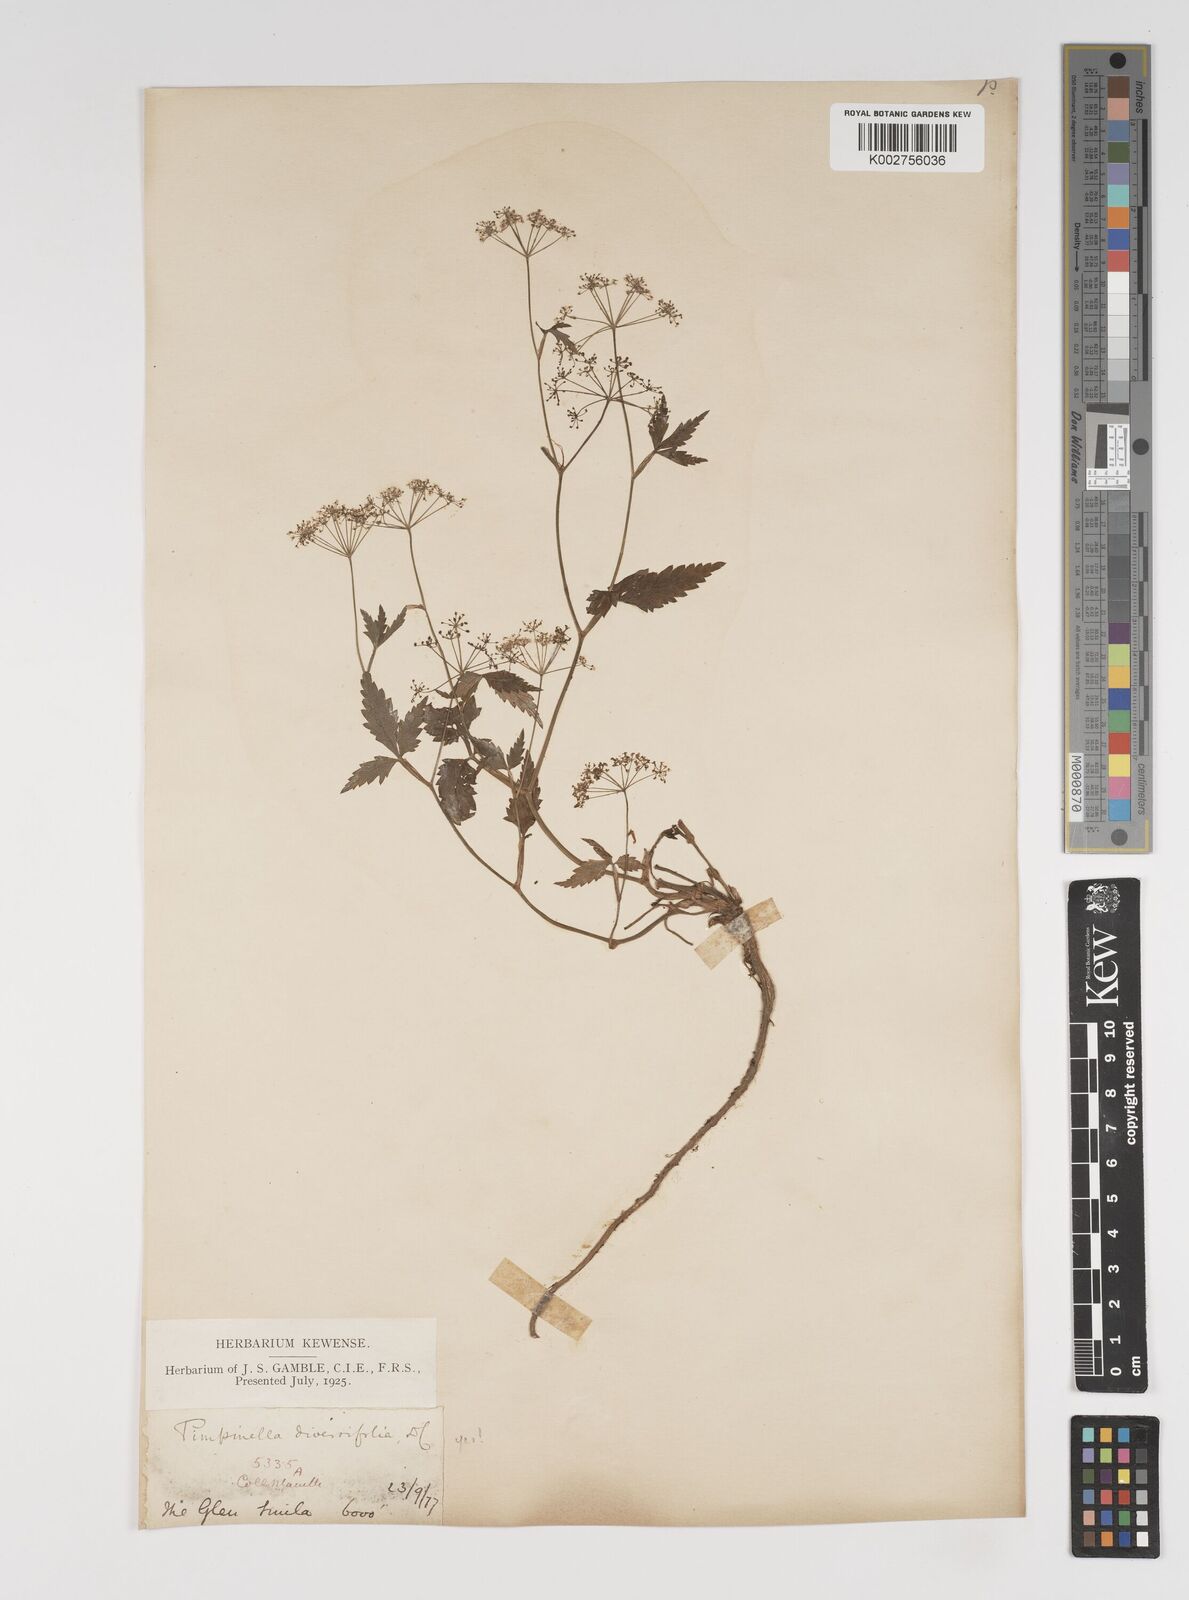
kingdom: Plantae
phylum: Tracheophyta
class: Magnoliopsida
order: Apiales
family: Apiaceae
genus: Pimpinella
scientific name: Pimpinella diversifolia
